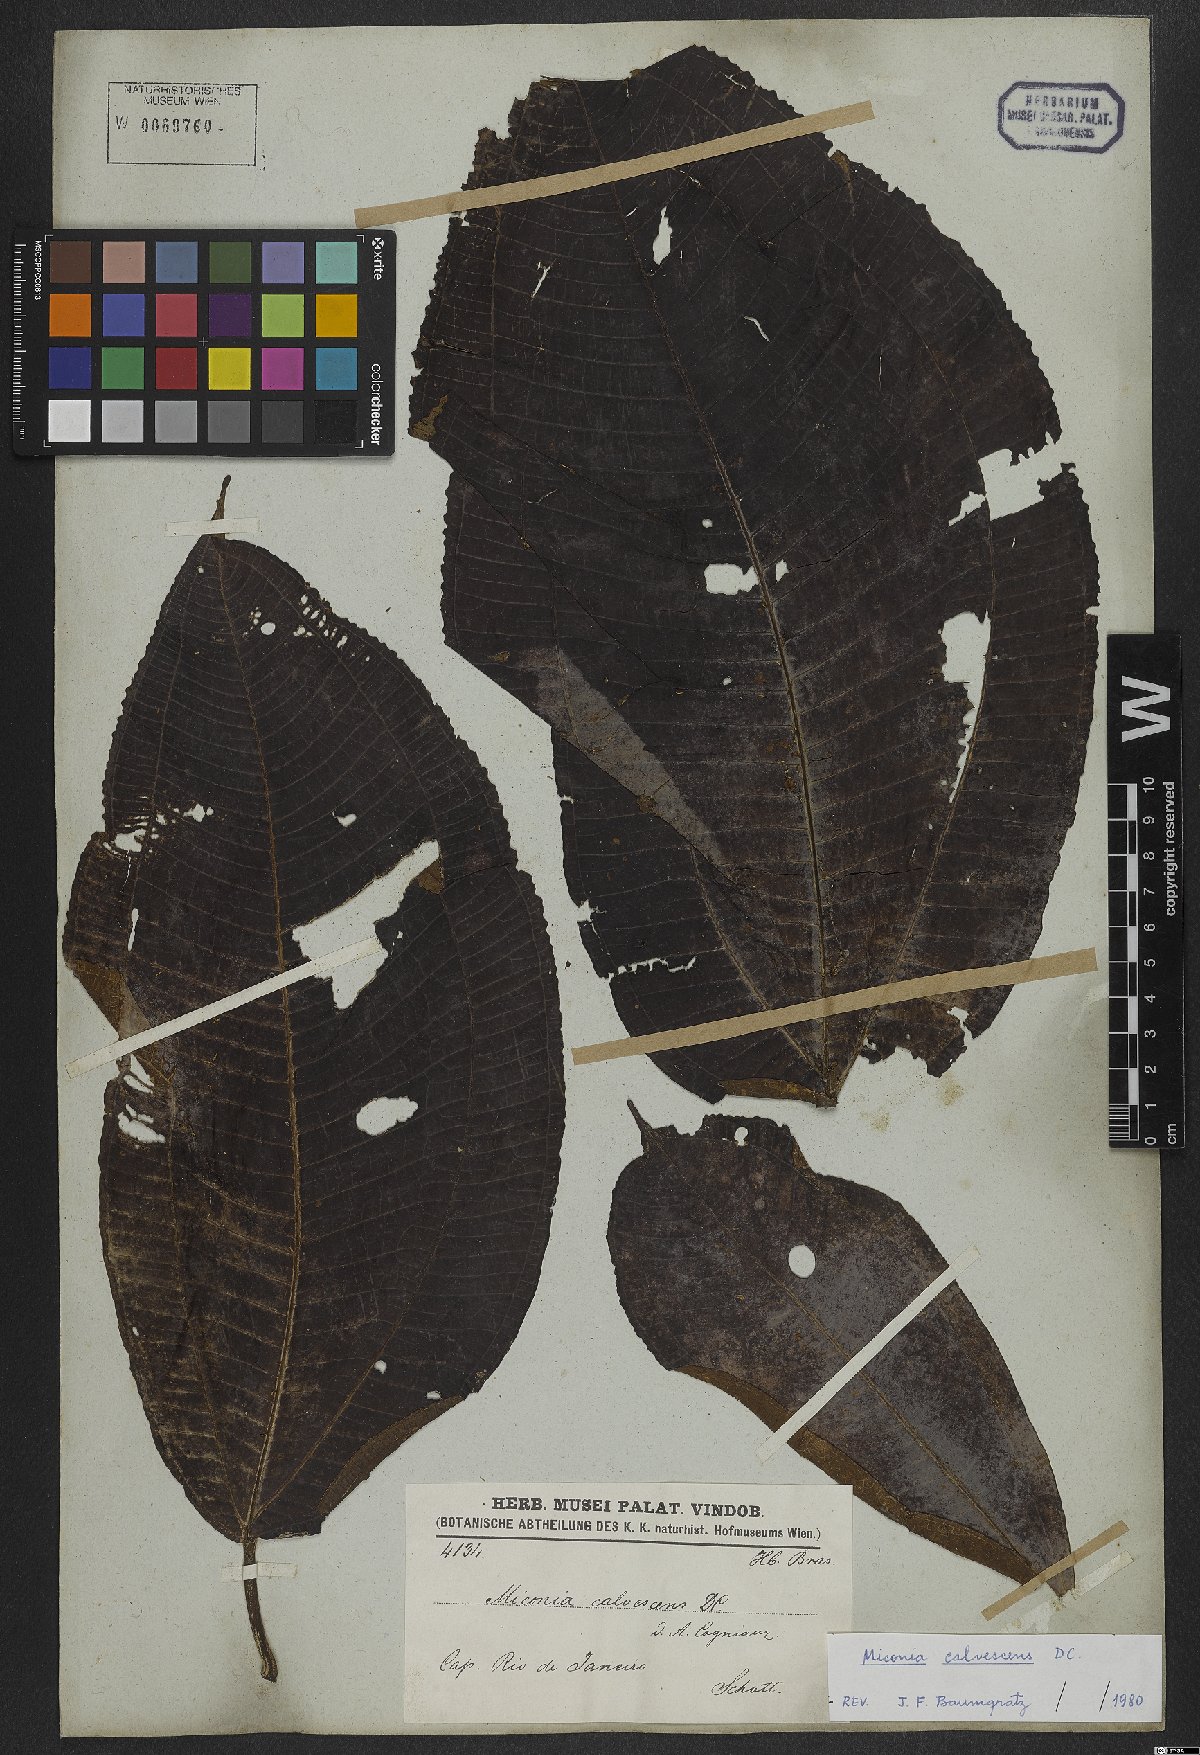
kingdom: Plantae
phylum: Tracheophyta
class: Magnoliopsida
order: Myrtales
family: Melastomataceae
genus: Miconia
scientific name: Miconia calvescens
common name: Purple plague
